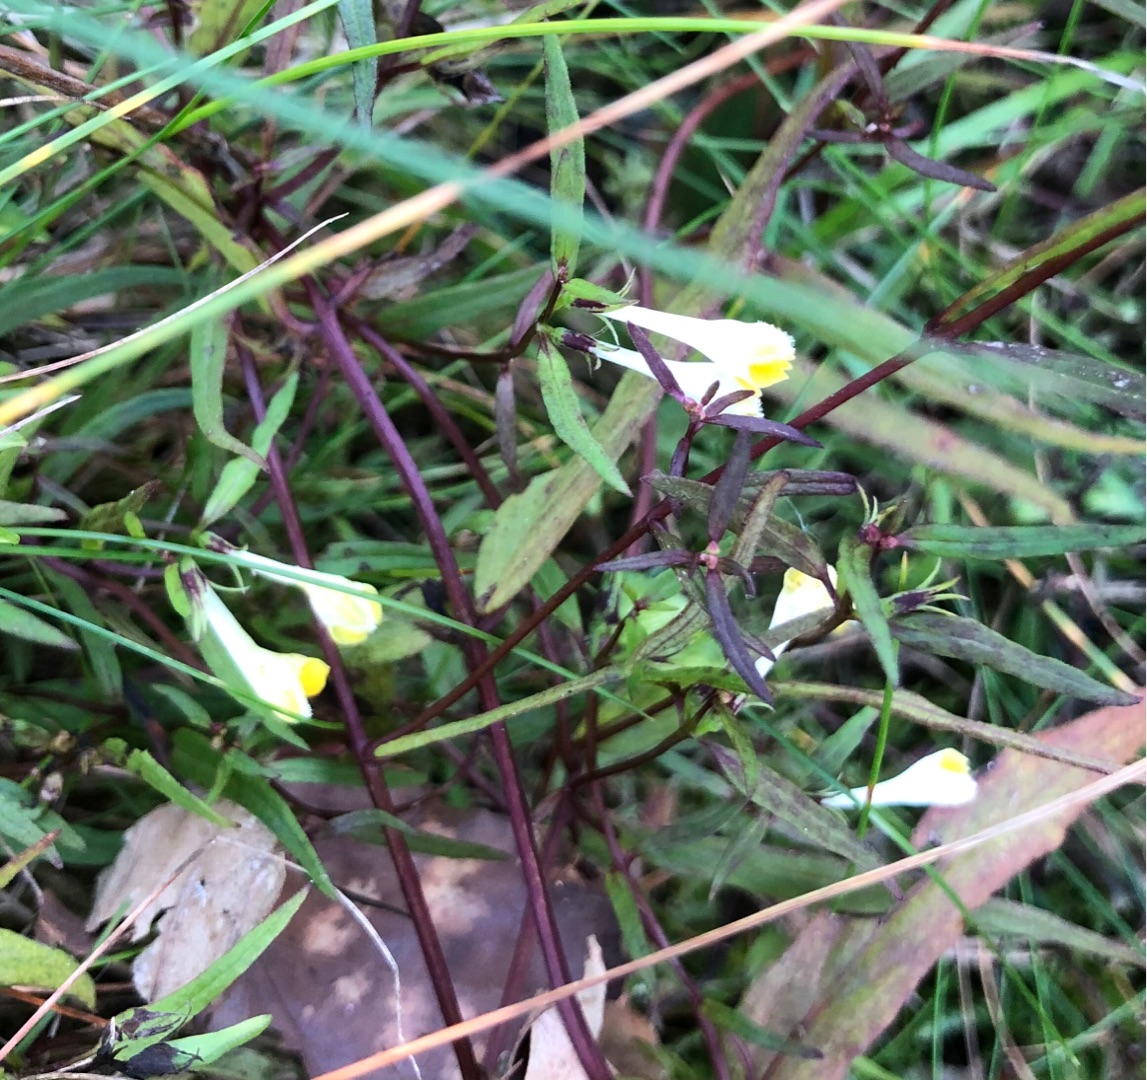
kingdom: Plantae
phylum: Tracheophyta
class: Magnoliopsida
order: Lamiales
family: Orobanchaceae
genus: Melampyrum
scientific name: Melampyrum pratense
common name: Almindelig kohvede
